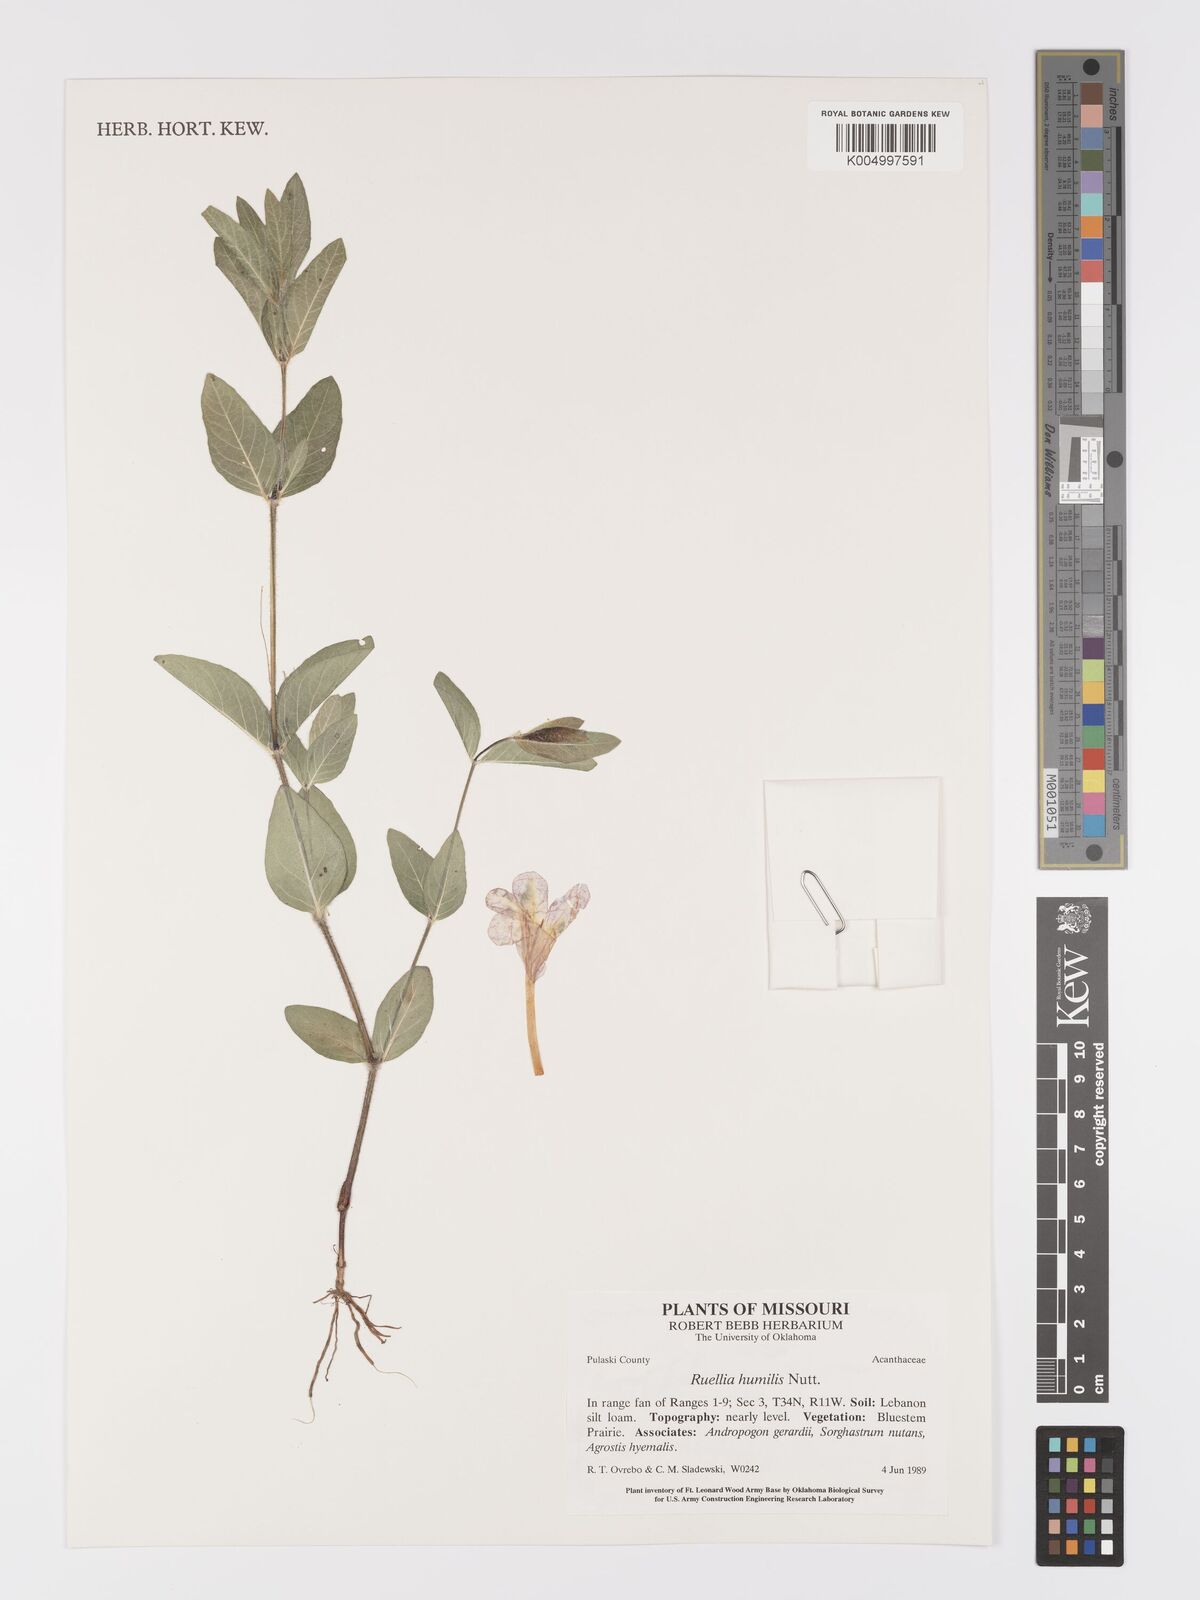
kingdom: Plantae
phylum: Tracheophyta
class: Magnoliopsida
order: Lamiales
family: Acanthaceae
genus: Ruellia
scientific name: Ruellia
